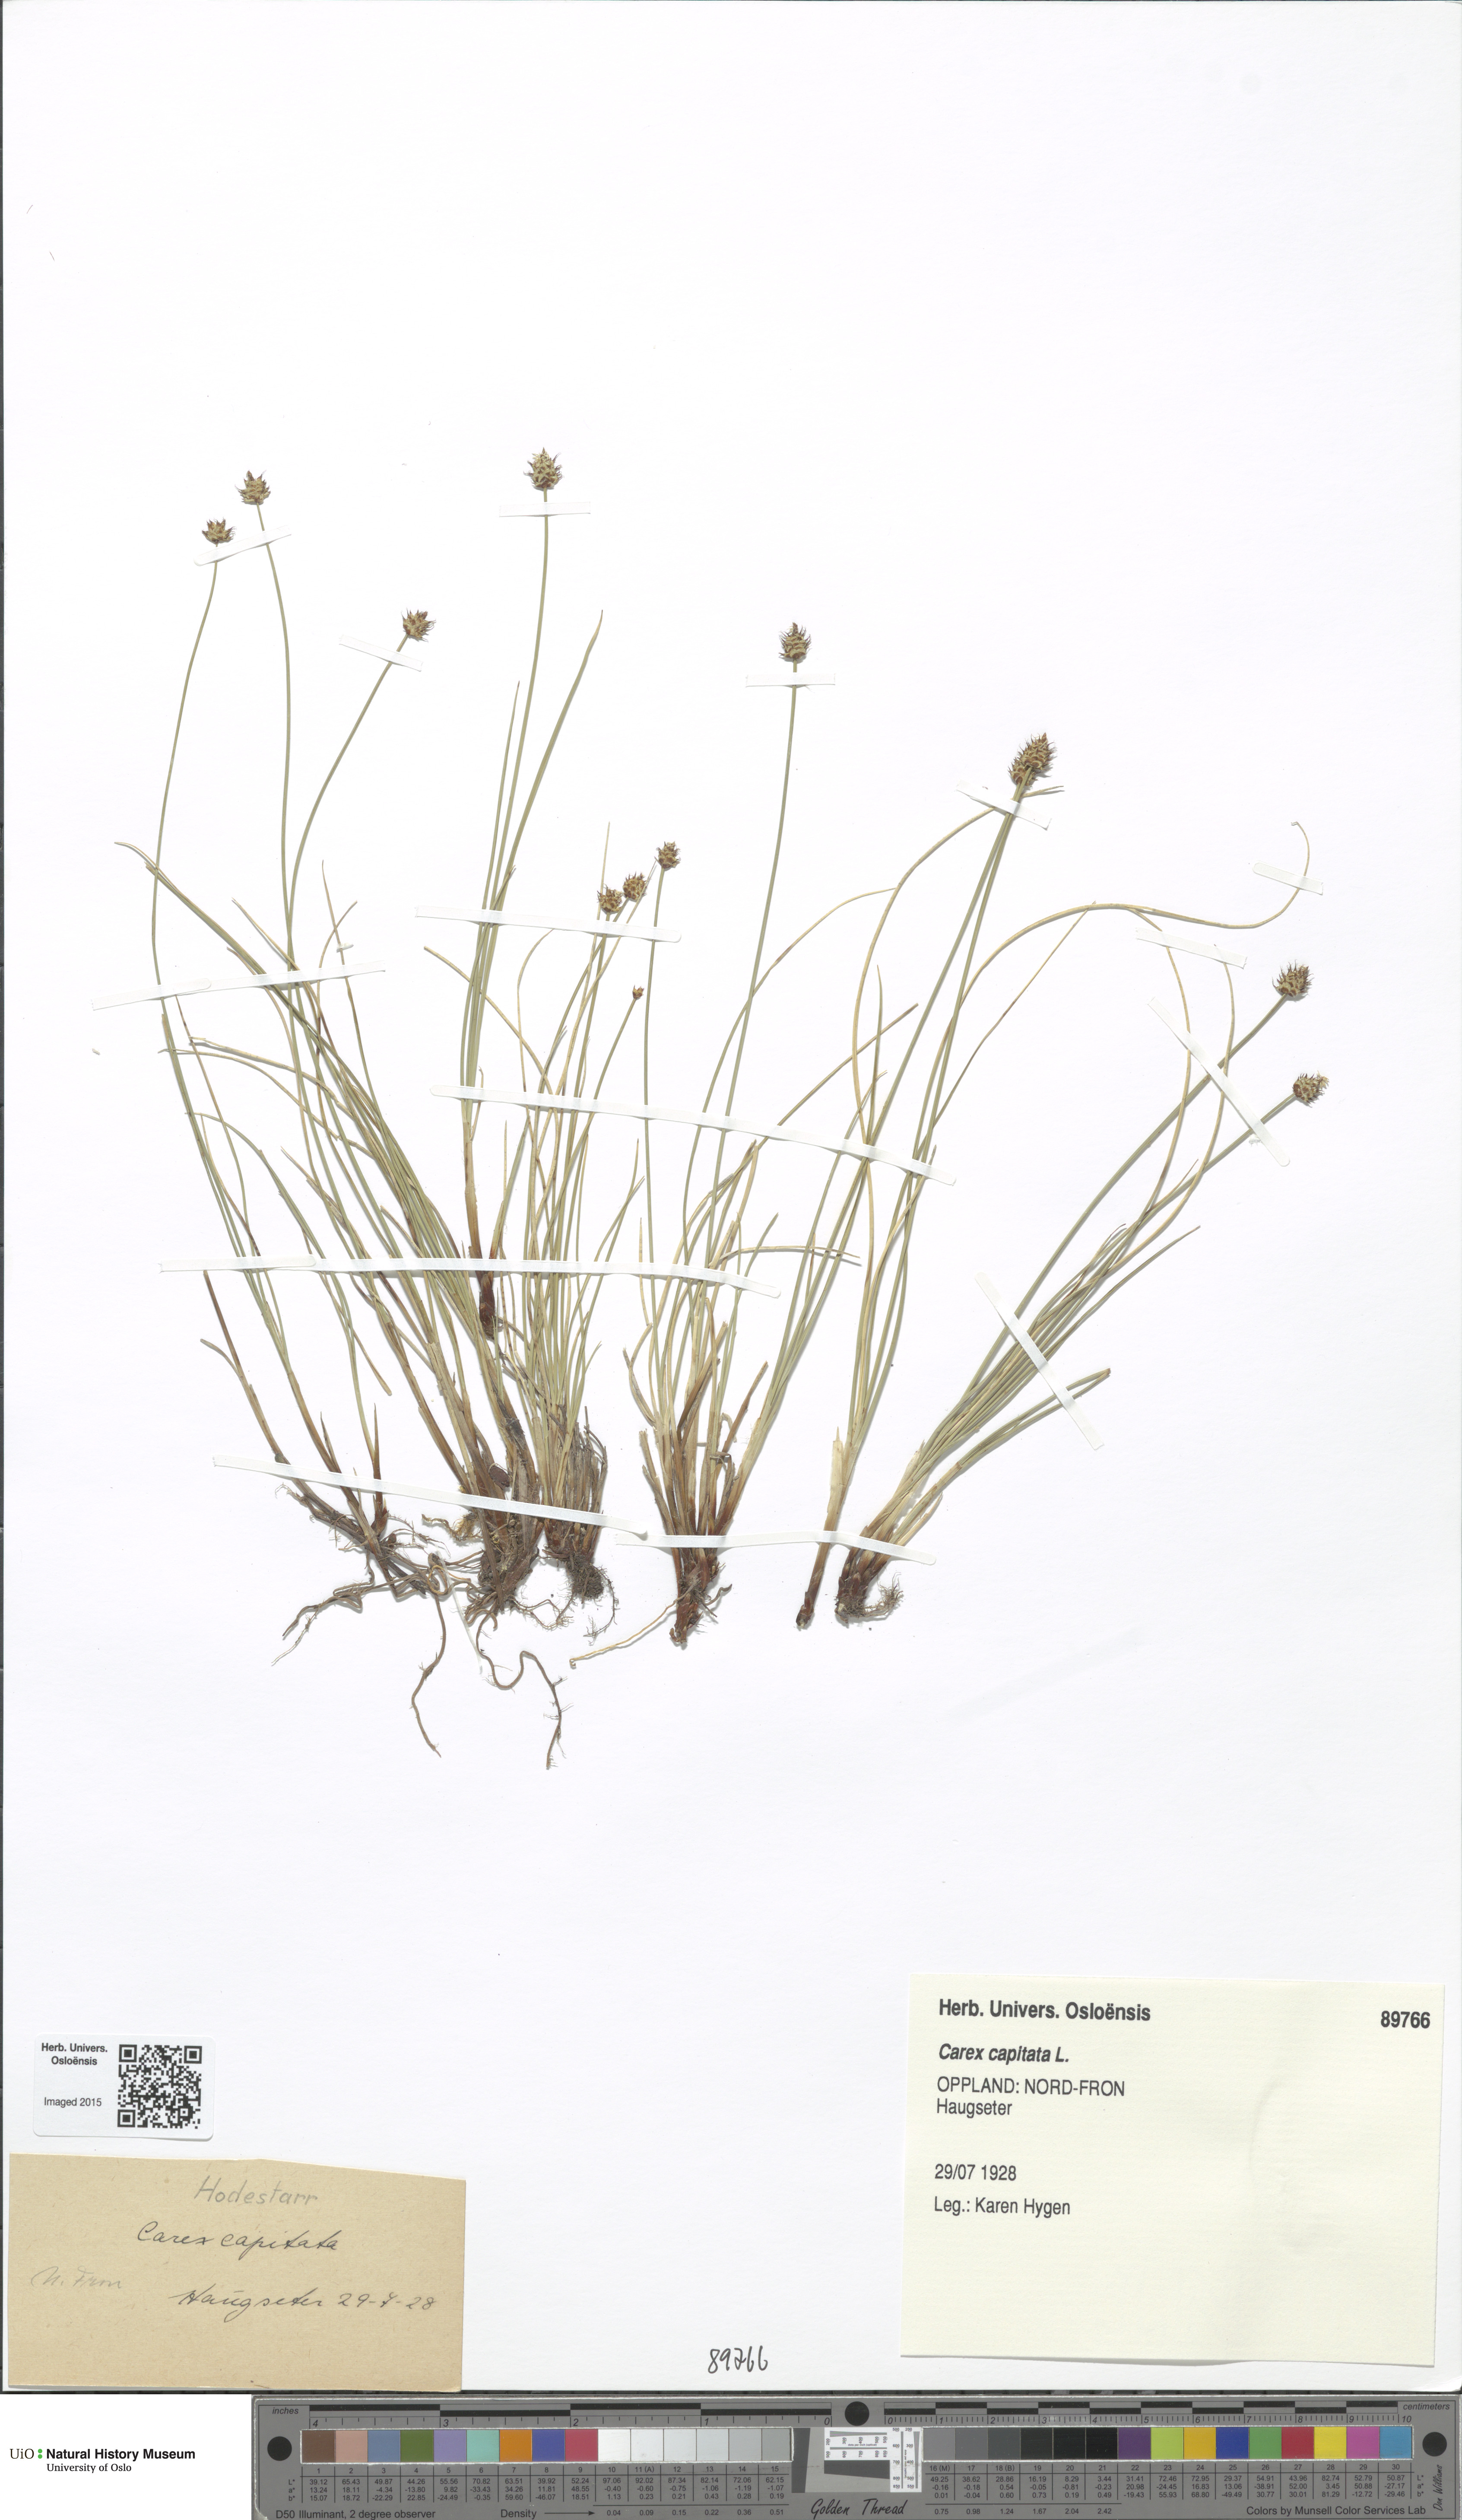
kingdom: Plantae
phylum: Tracheophyta
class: Liliopsida
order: Poales
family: Cyperaceae
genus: Carex
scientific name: Carex capitata
